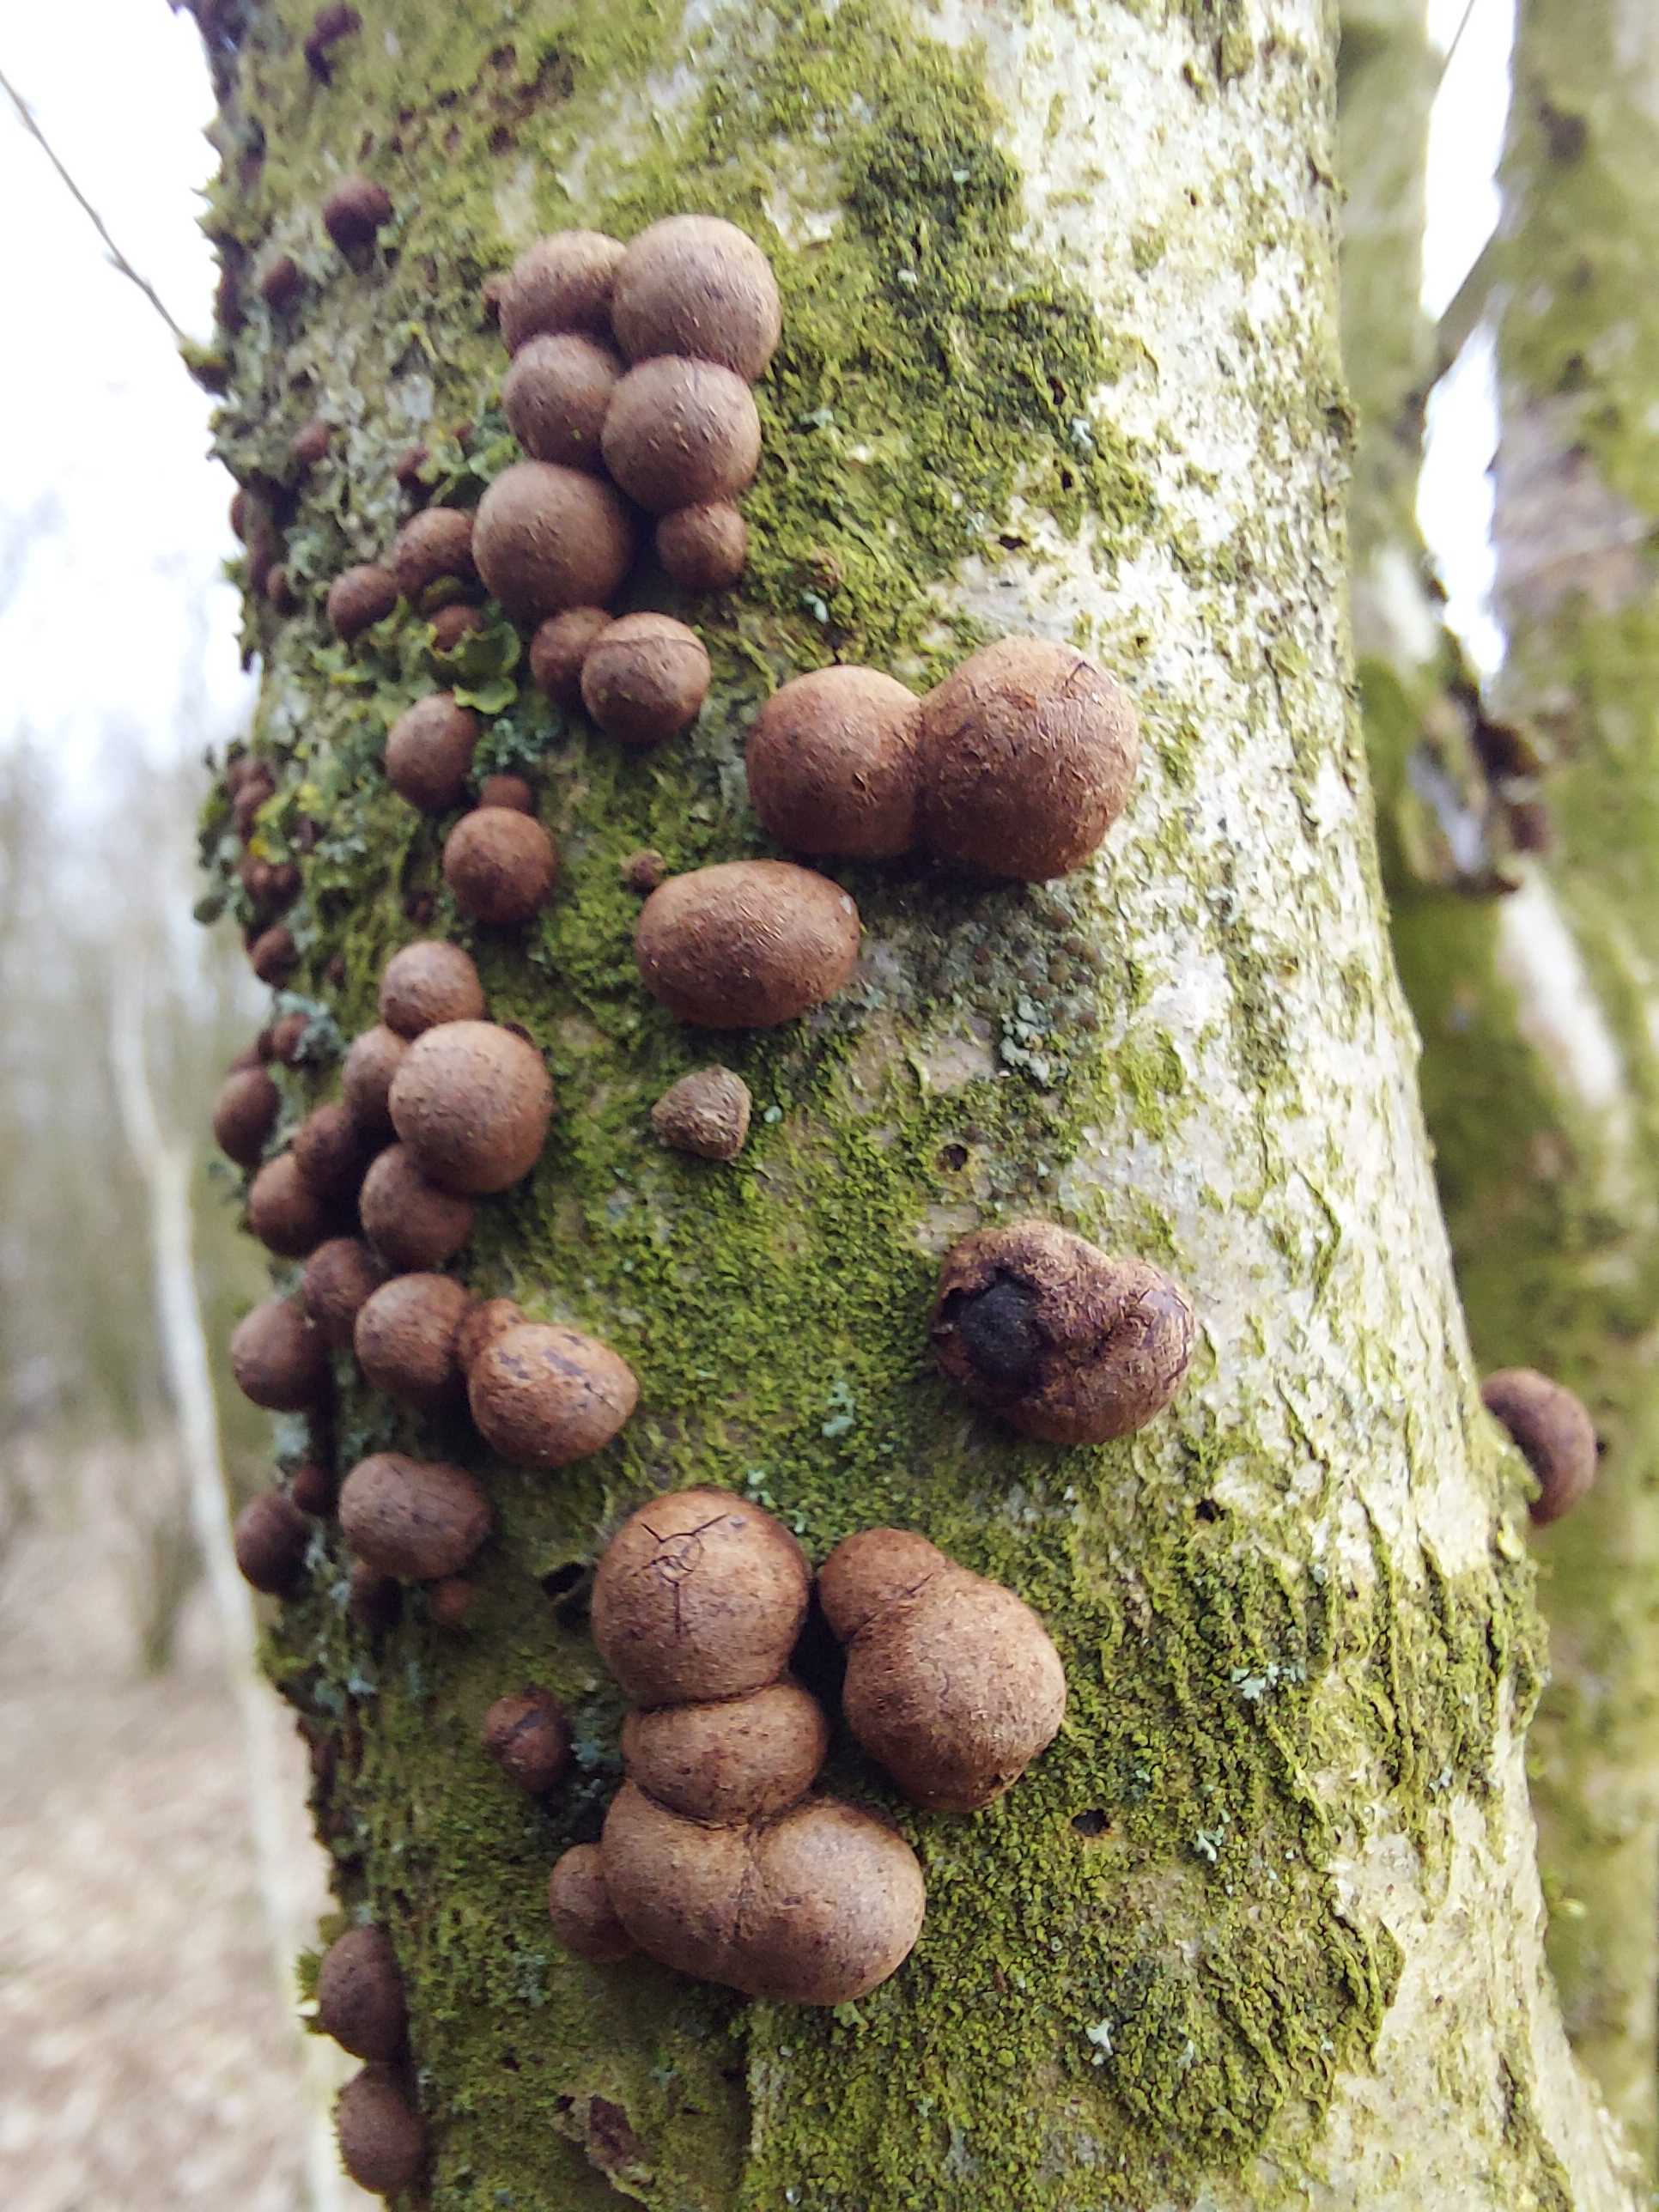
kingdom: Fungi
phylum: Ascomycota
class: Sordariomycetes
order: Xylariales
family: Hypoxylaceae
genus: Hypoxylon
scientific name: Hypoxylon fragiforme
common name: kuljordbær
